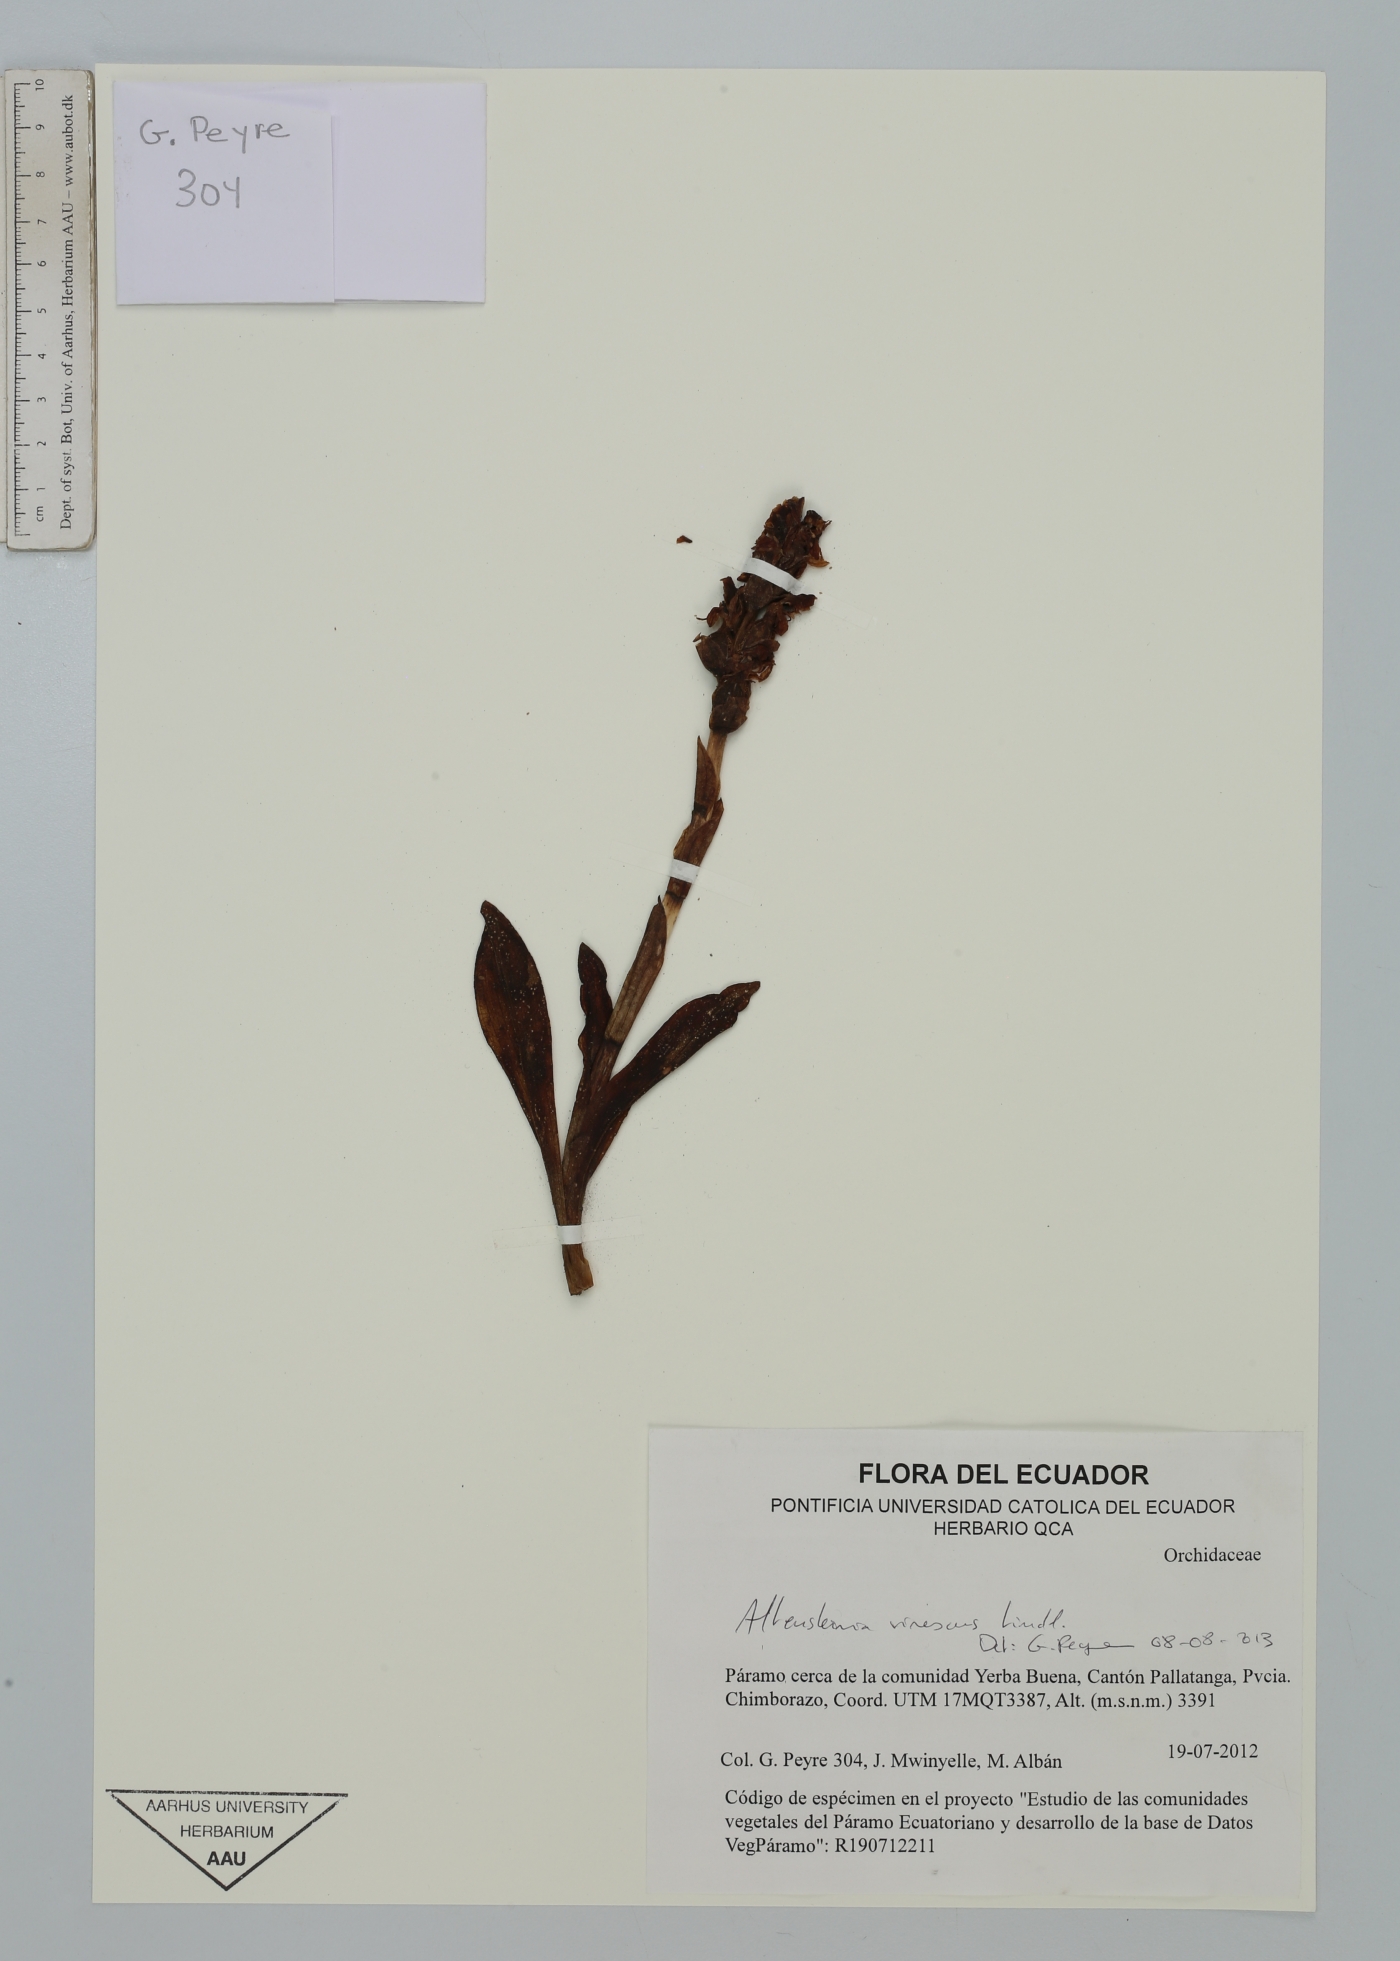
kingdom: Plantae
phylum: Tracheophyta
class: Liliopsida
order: Asparagales
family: Orchidaceae
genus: Altensteinia
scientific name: Altensteinia virescens
